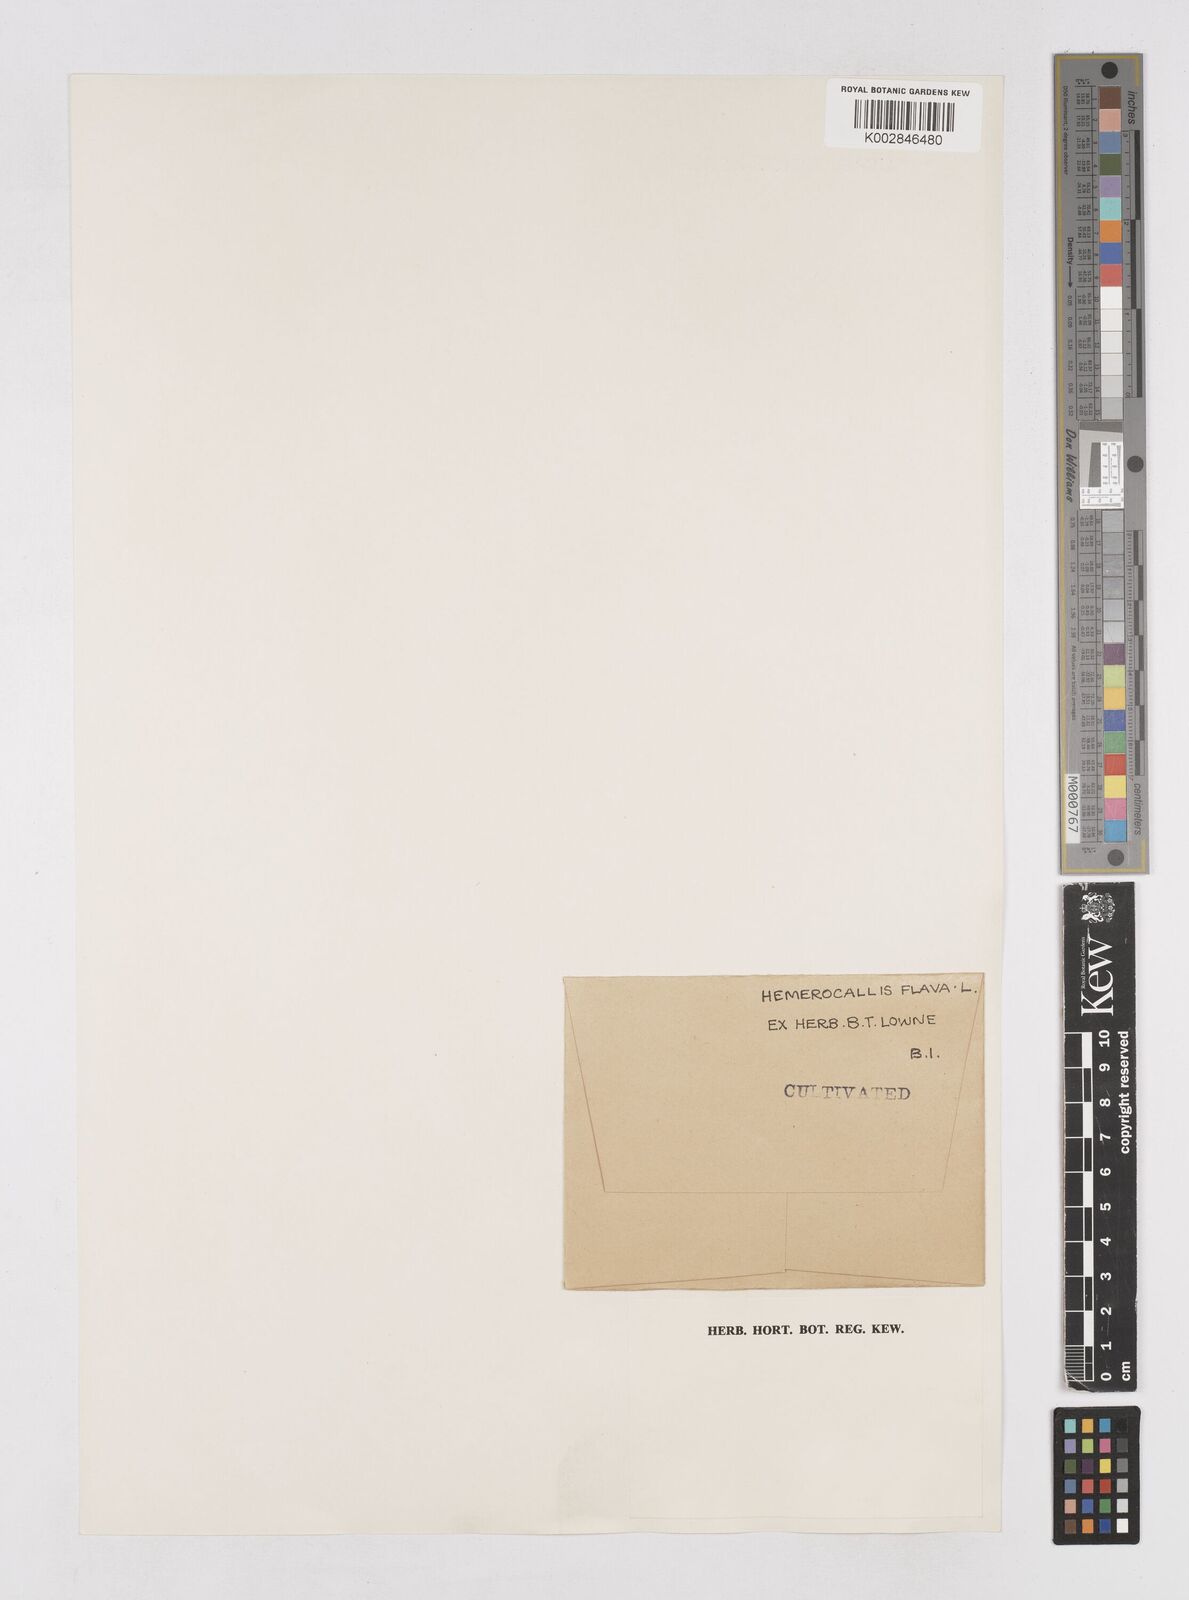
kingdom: Plantae
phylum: Tracheophyta
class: Liliopsida
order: Asparagales
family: Asphodelaceae
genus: Hemerocallis
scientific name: Hemerocallis lilioasphodelus
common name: Yellow day-lily
